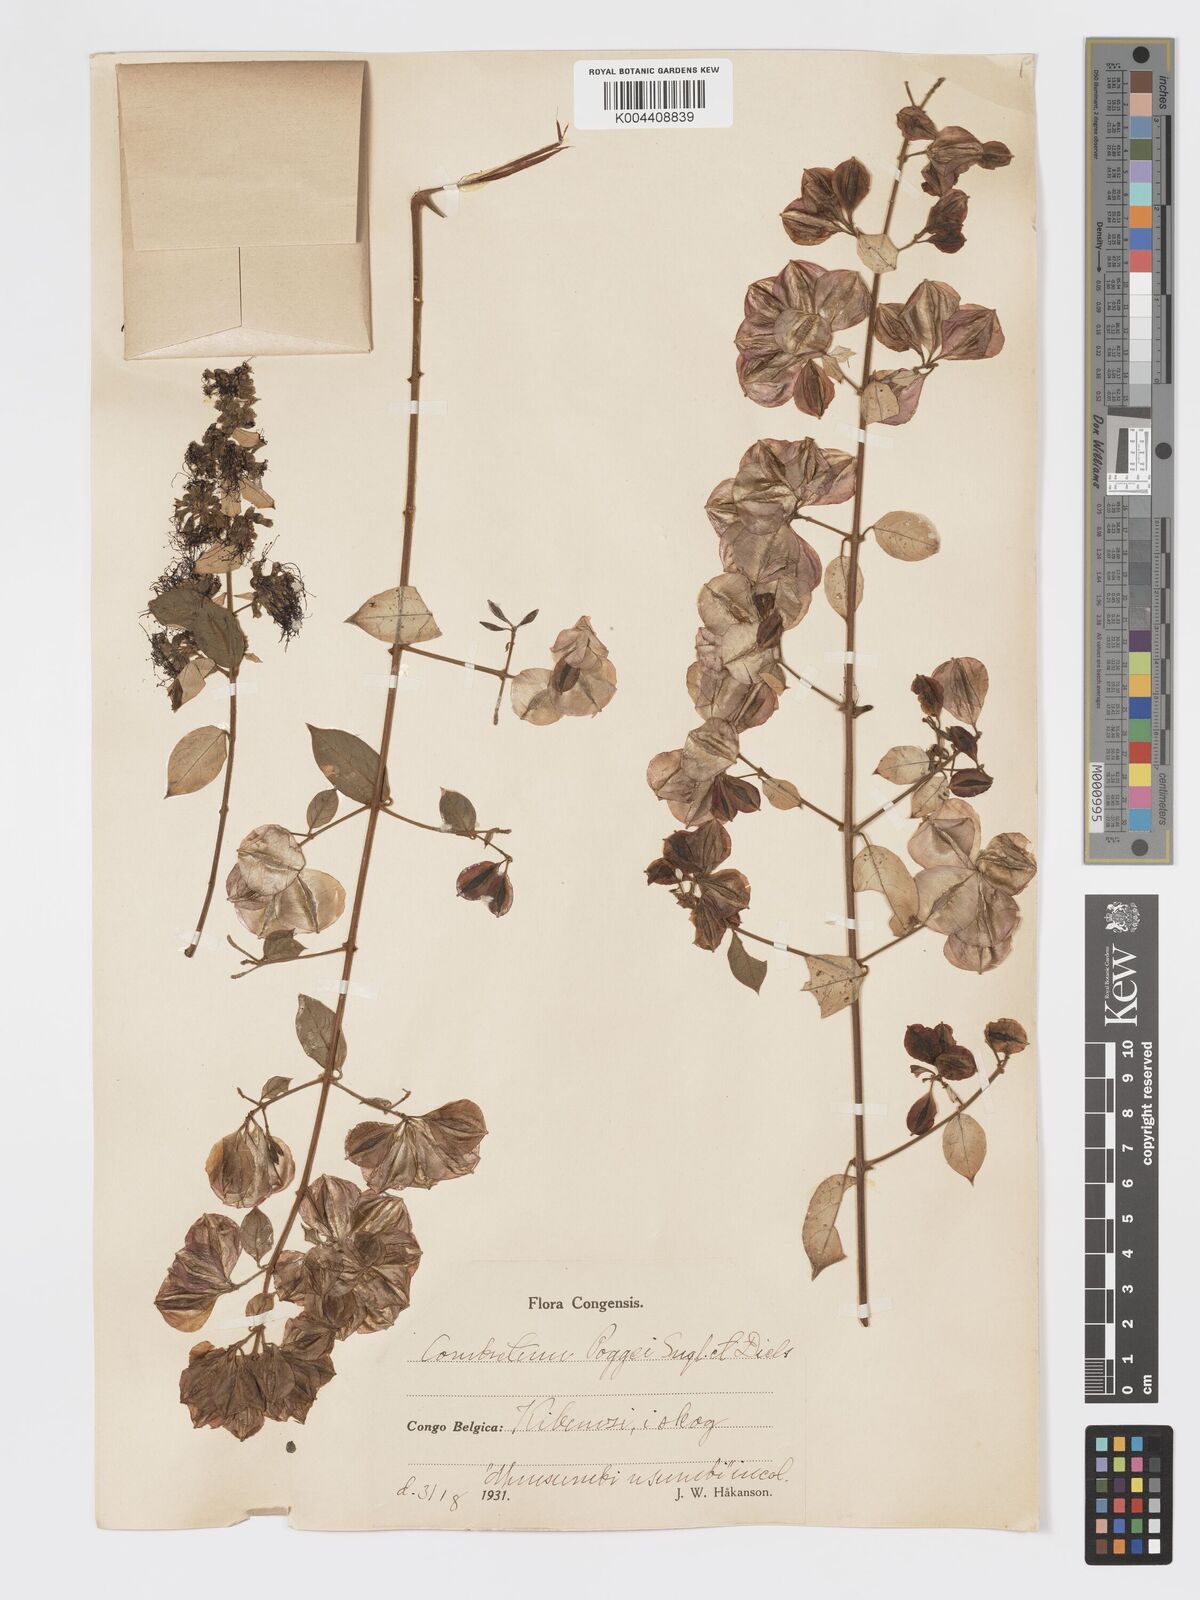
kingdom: Plantae
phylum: Tracheophyta
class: Magnoliopsida
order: Myrtales
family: Combretaceae
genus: Combretum
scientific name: Combretum racemosum
